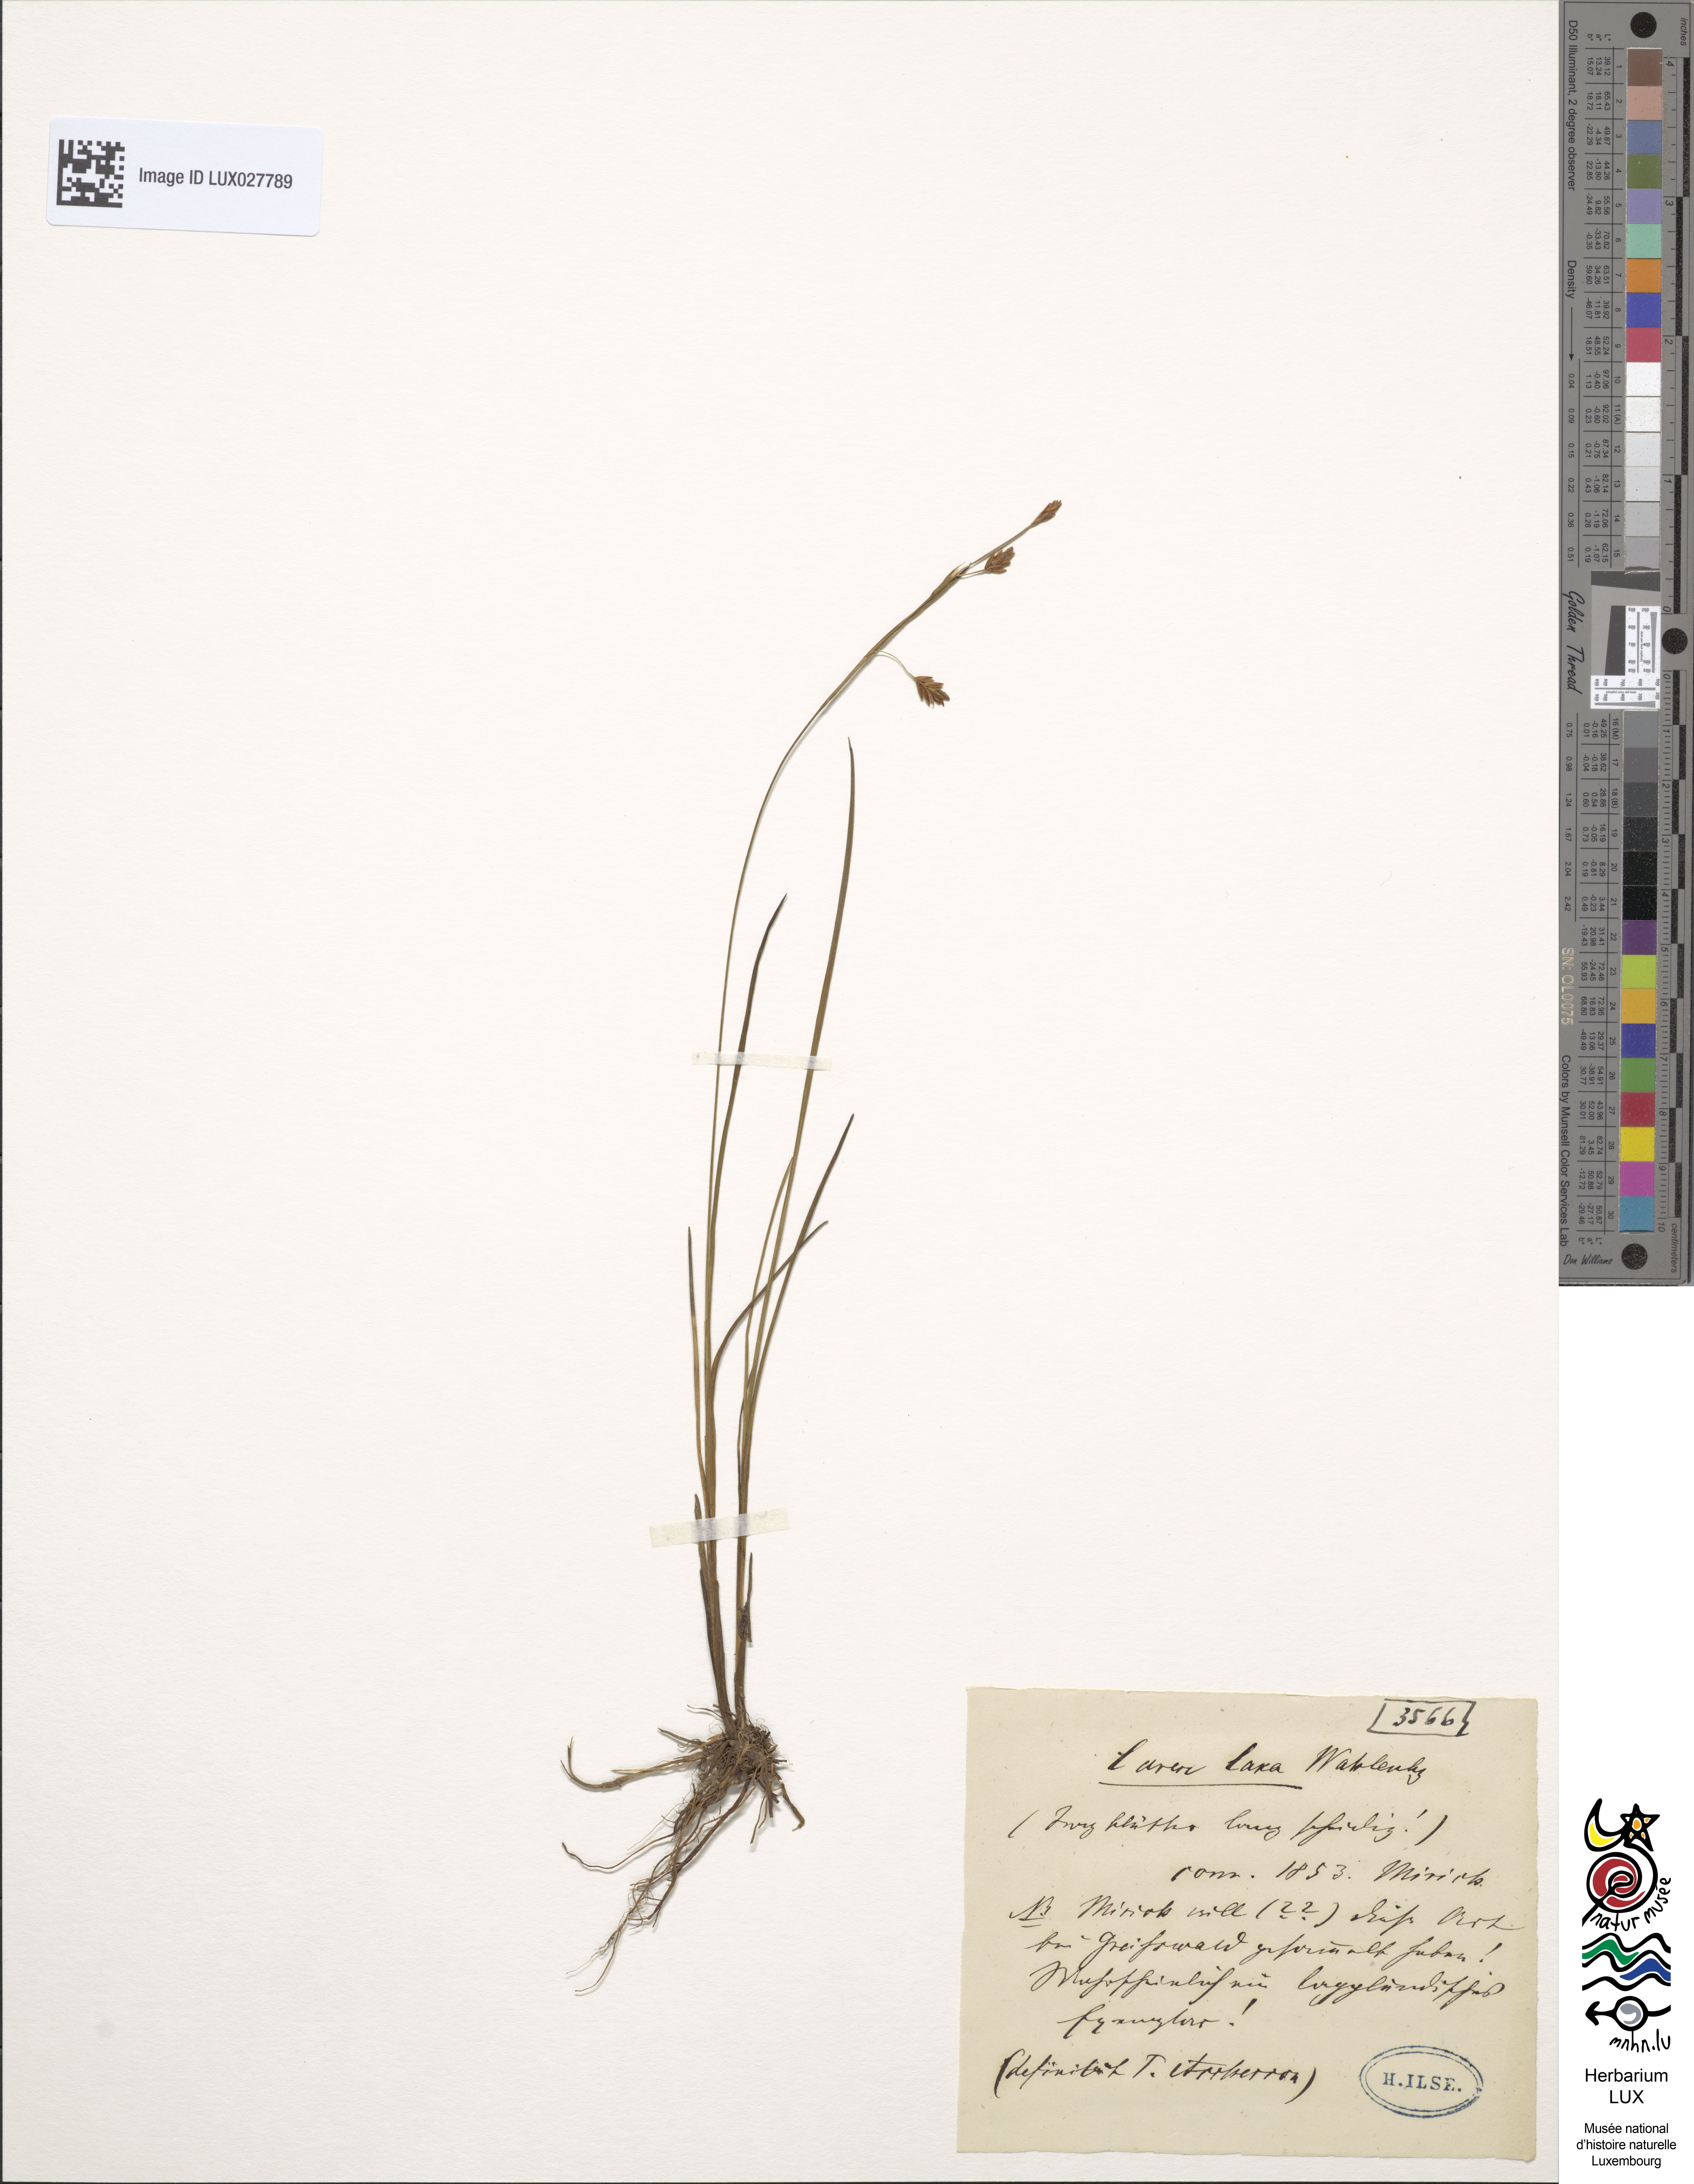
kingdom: Plantae
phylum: Tracheophyta
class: Liliopsida
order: Poales
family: Cyperaceae
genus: Carex
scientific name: Carex laxa
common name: Weak sedge
